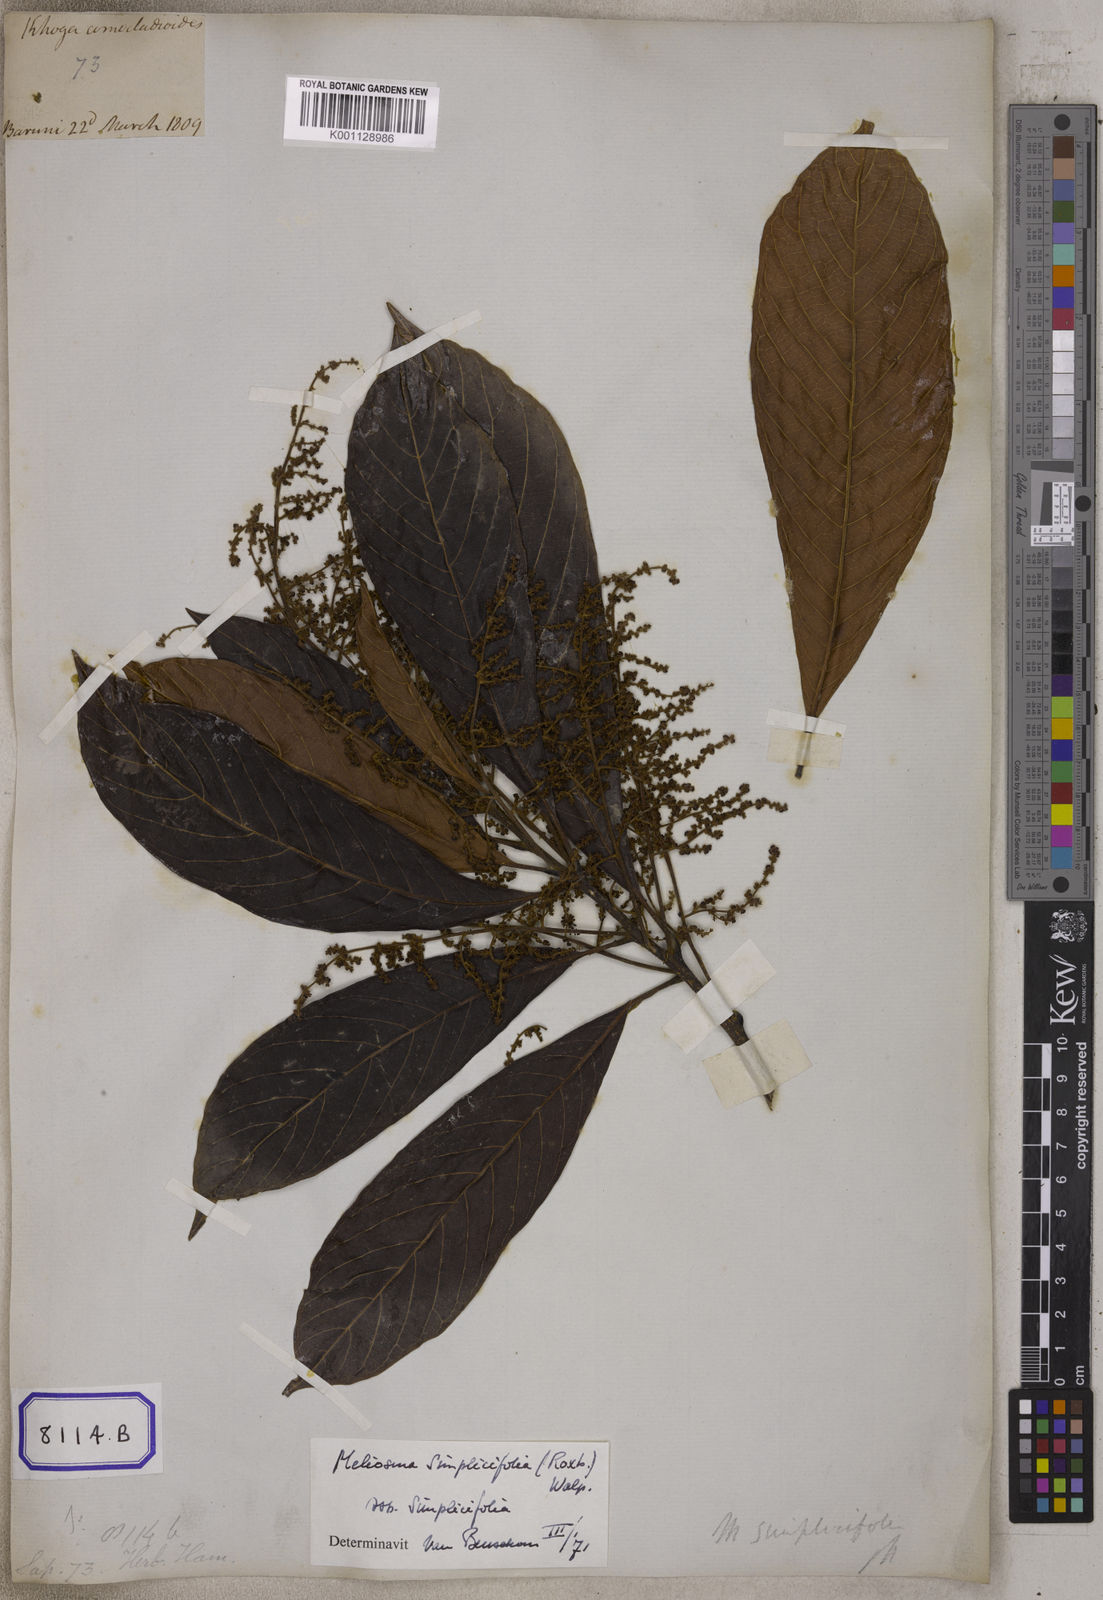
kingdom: Plantae
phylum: Tracheophyta
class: Magnoliopsida
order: Proteales
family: Sabiaceae
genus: Meliosma
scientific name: Meliosma simplicifolia
